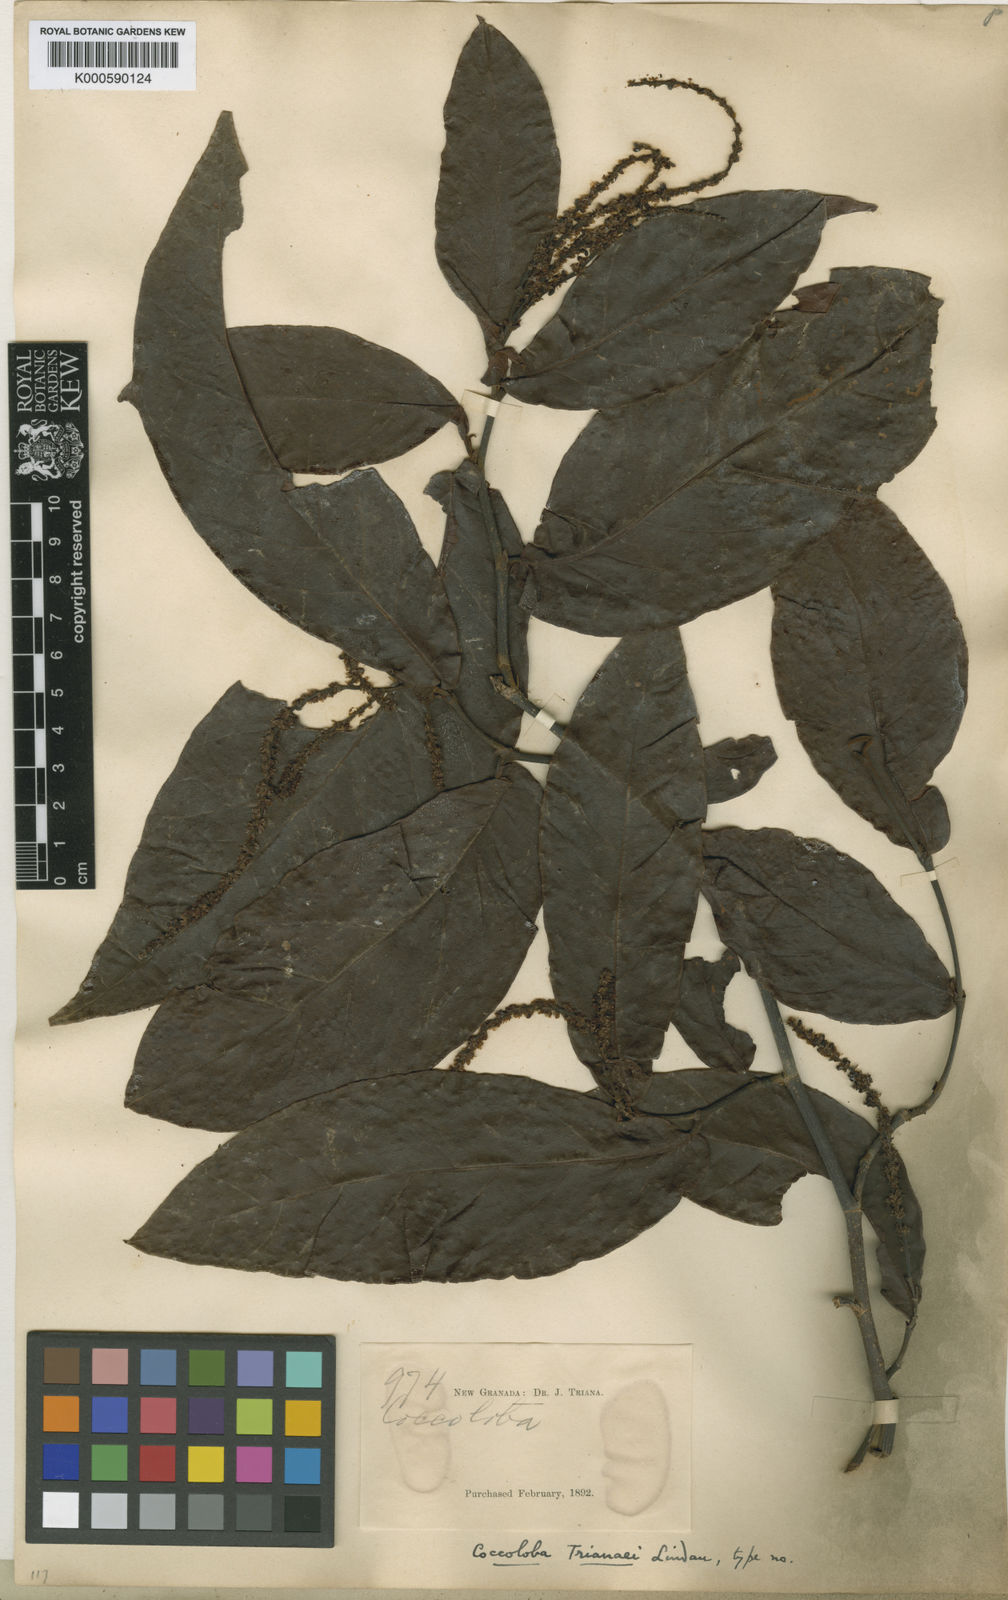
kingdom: Plantae
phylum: Tracheophyta
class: Magnoliopsida
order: Caryophyllales
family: Polygonaceae
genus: Coccoloba
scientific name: Coccoloba
